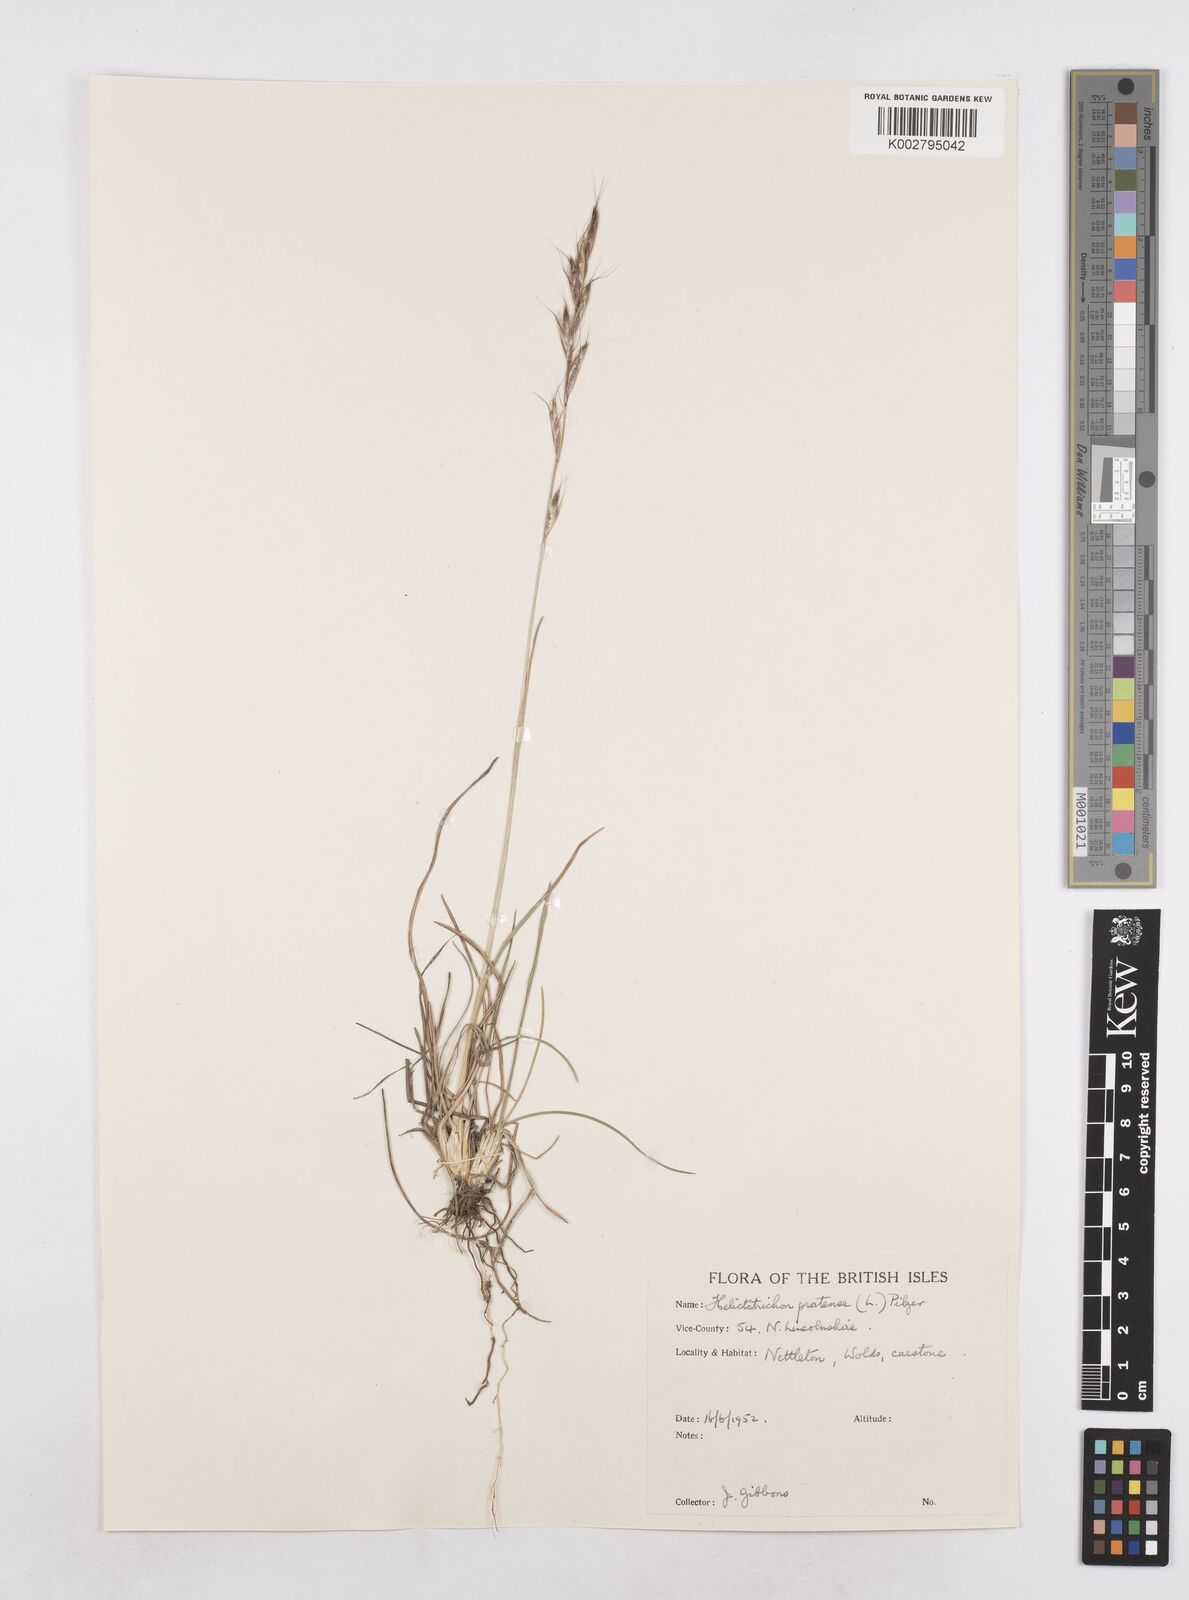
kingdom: Plantae
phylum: Tracheophyta
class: Liliopsida
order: Poales
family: Poaceae
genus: Helictochloa
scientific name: Helictochloa pratensis
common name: Meadow oat grass
